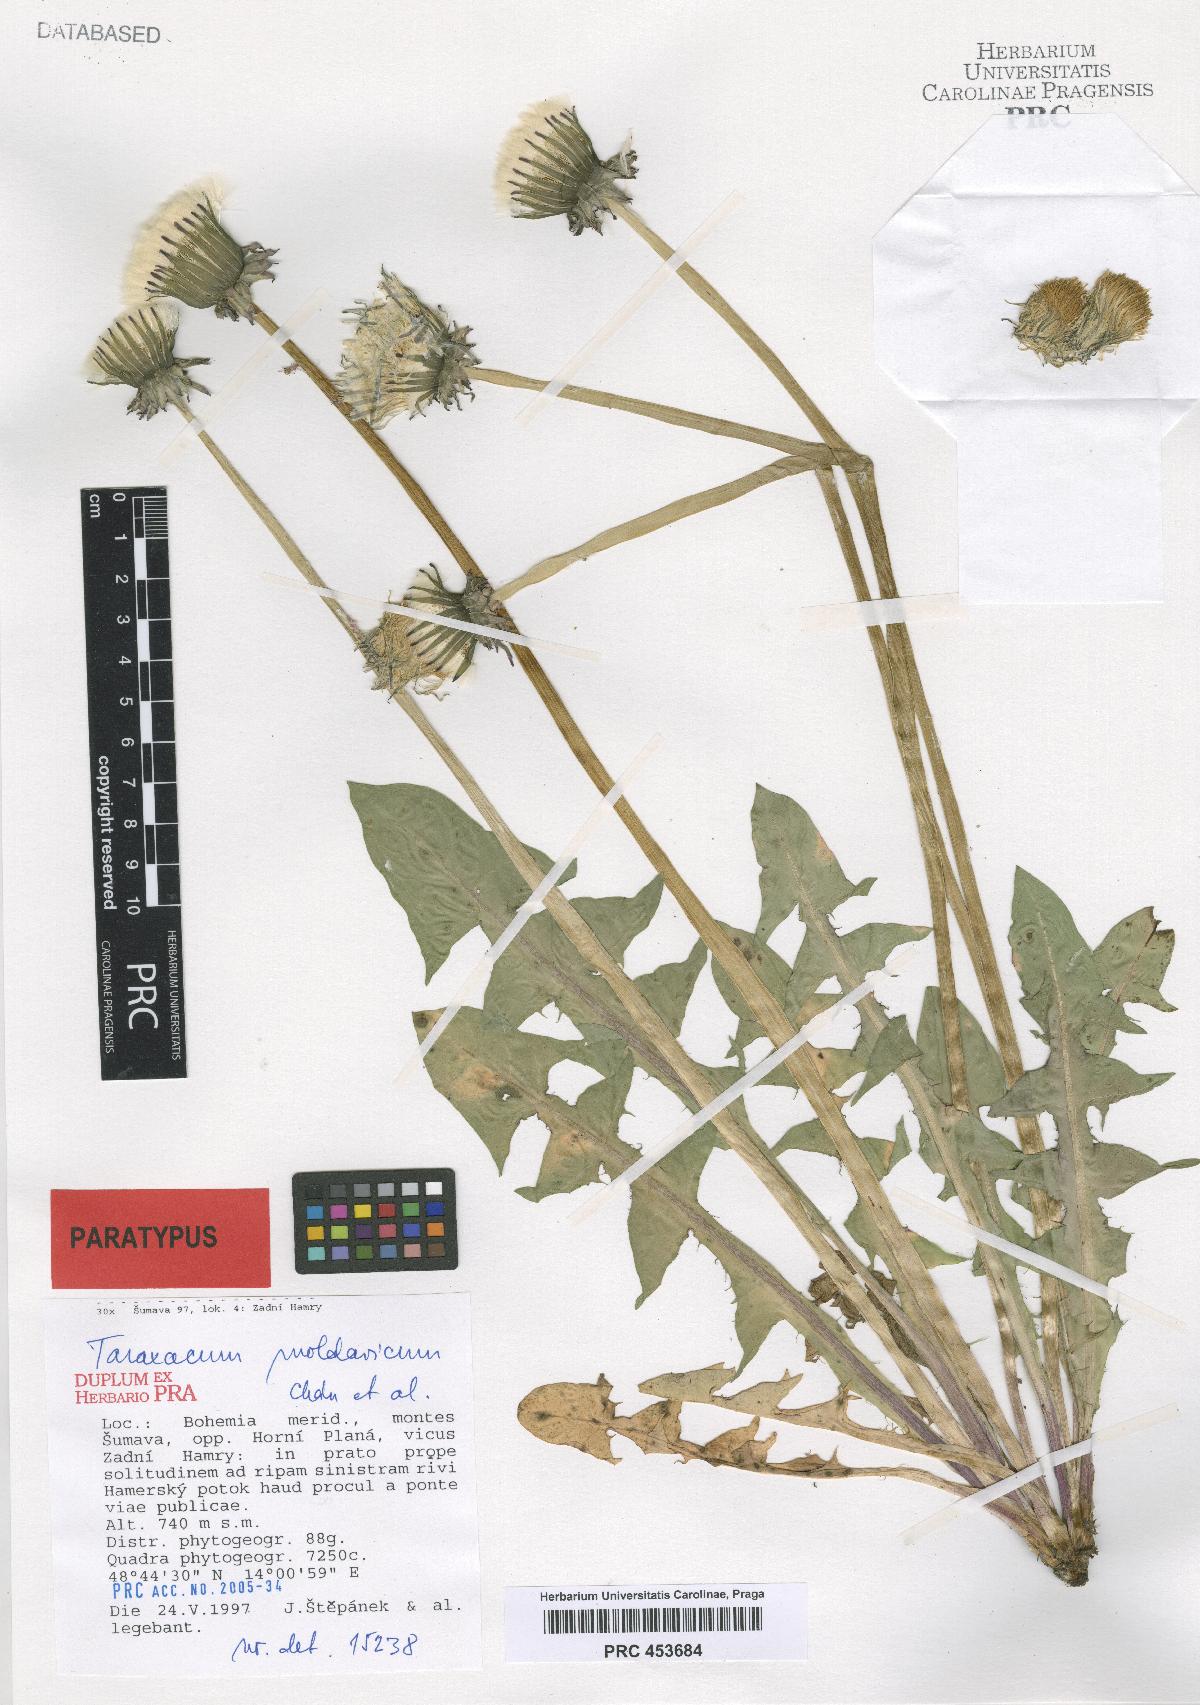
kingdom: Plantae
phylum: Tracheophyta
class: Magnoliopsida
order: Asterales
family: Asteraceae
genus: Taraxacum
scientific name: Taraxacum moldavicum
